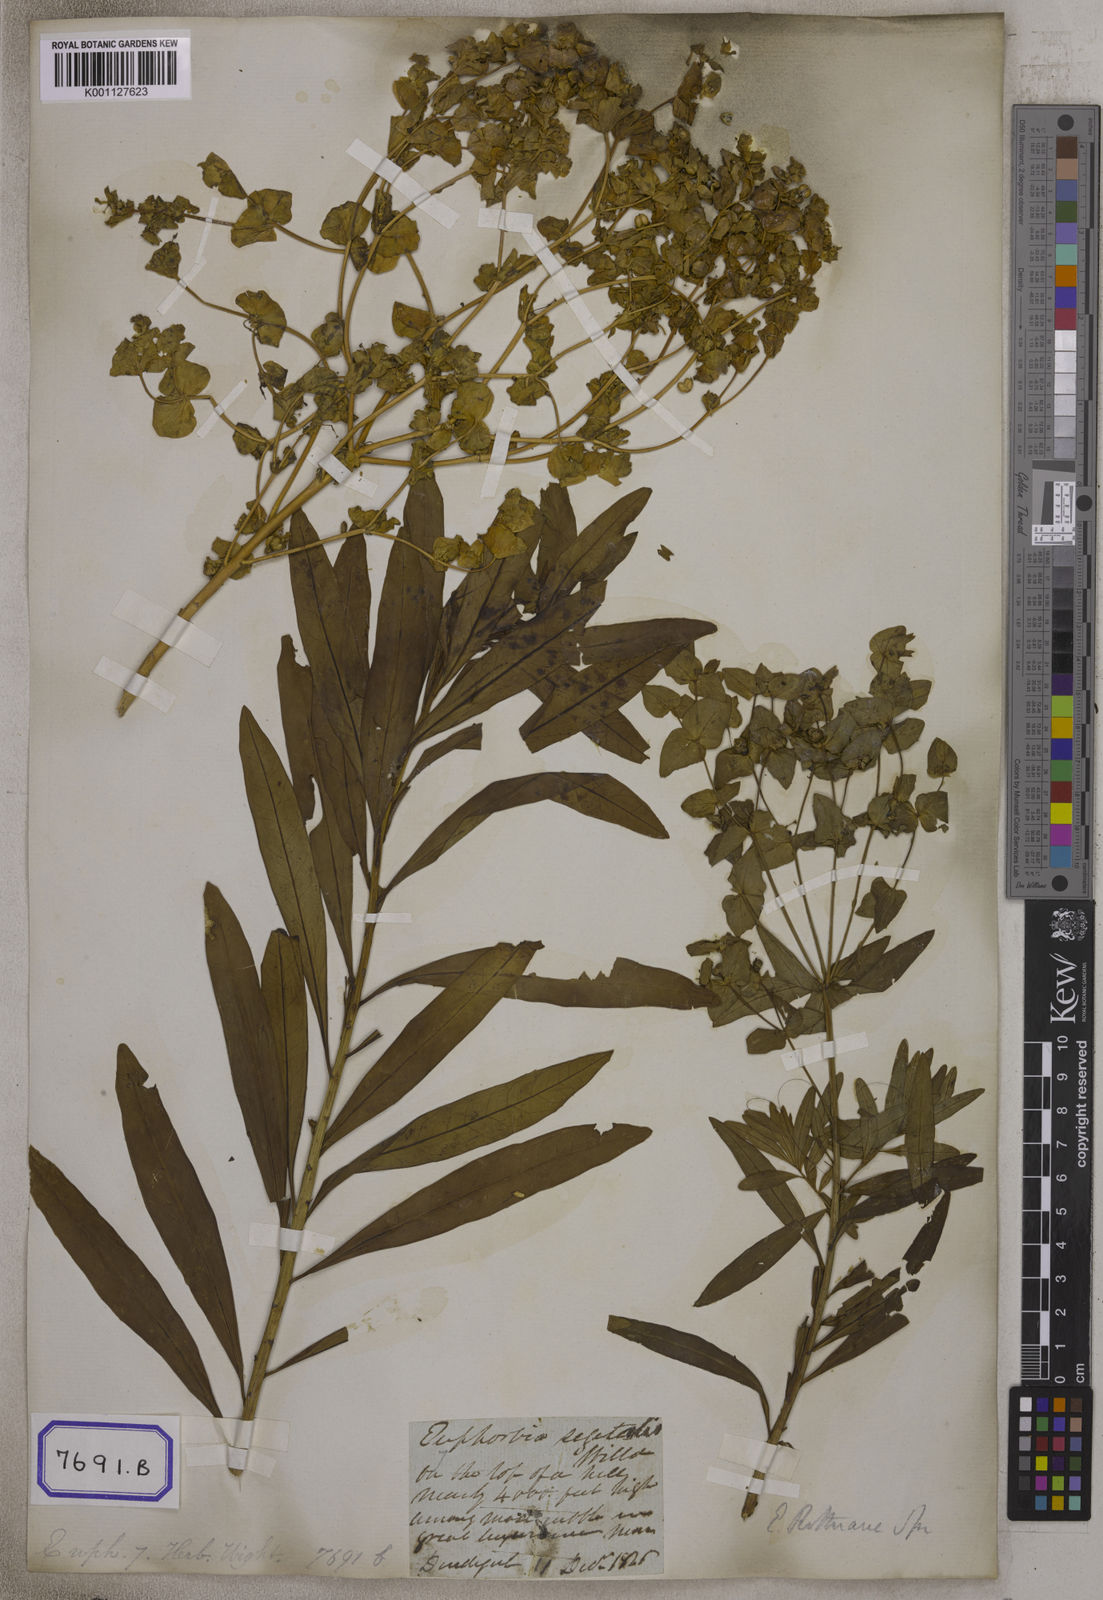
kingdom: Plantae
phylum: Tracheophyta
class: Magnoliopsida
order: Malpighiales
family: Euphorbiaceae
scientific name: Euphorbiaceae
